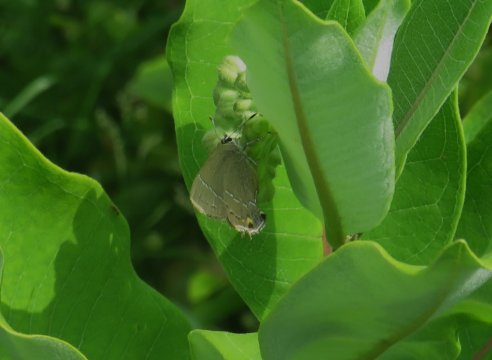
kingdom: Animalia
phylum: Arthropoda
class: Insecta
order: Lepidoptera
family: Lycaenidae
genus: Fixsenia
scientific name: Fixsenia favonius
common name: Oak Hairstreak
